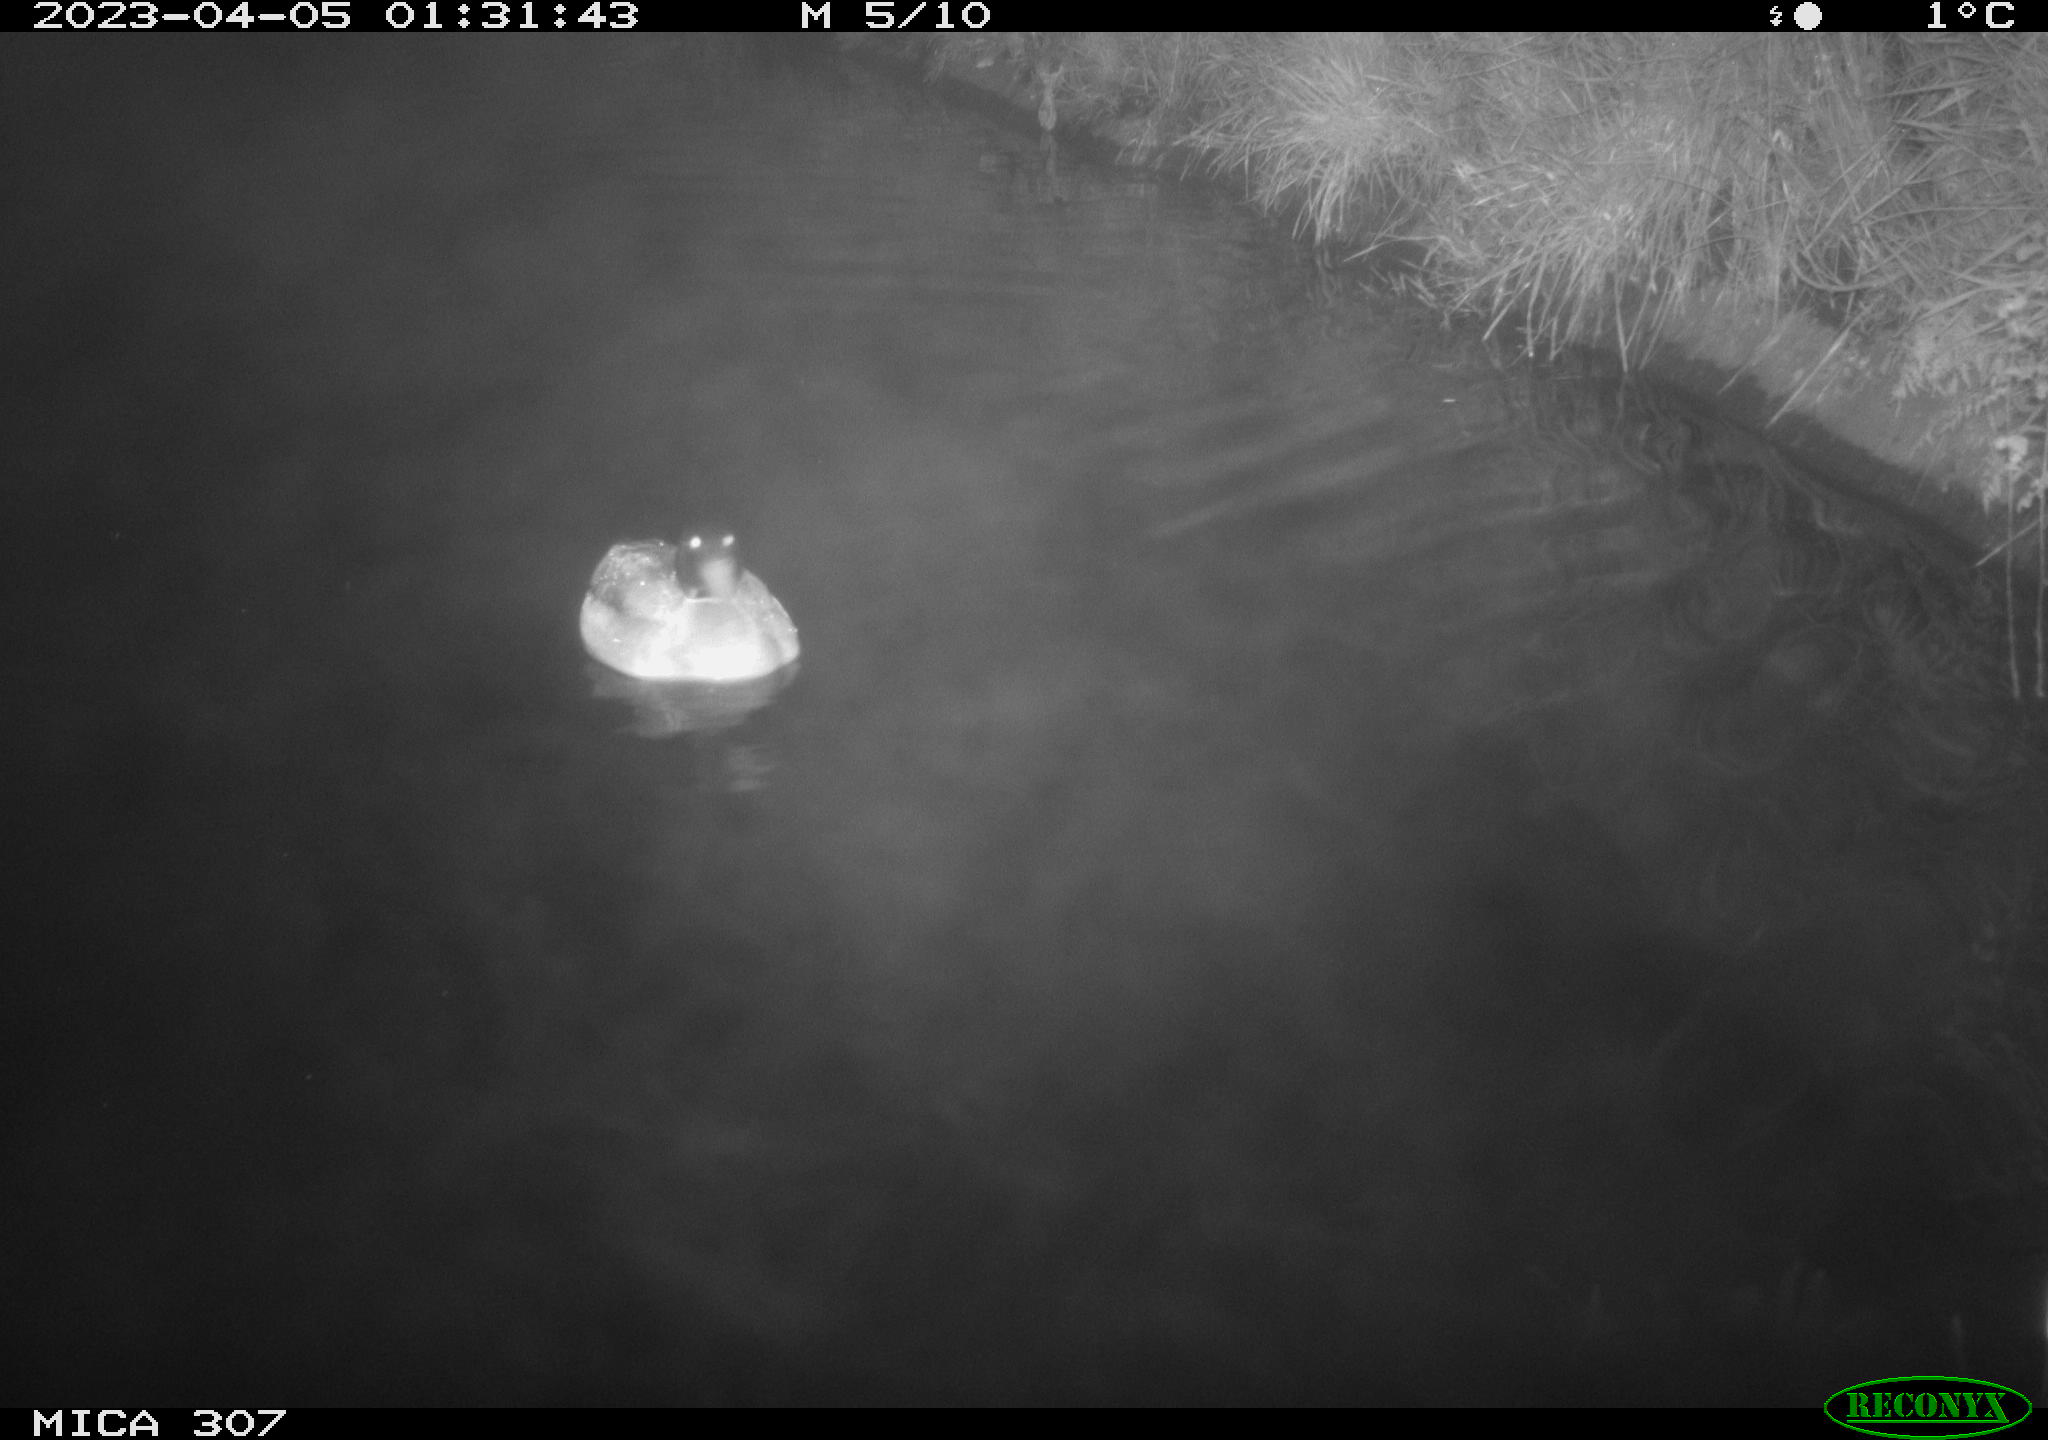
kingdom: Animalia
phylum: Chordata
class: Mammalia
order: Rodentia
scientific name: Rodentia
